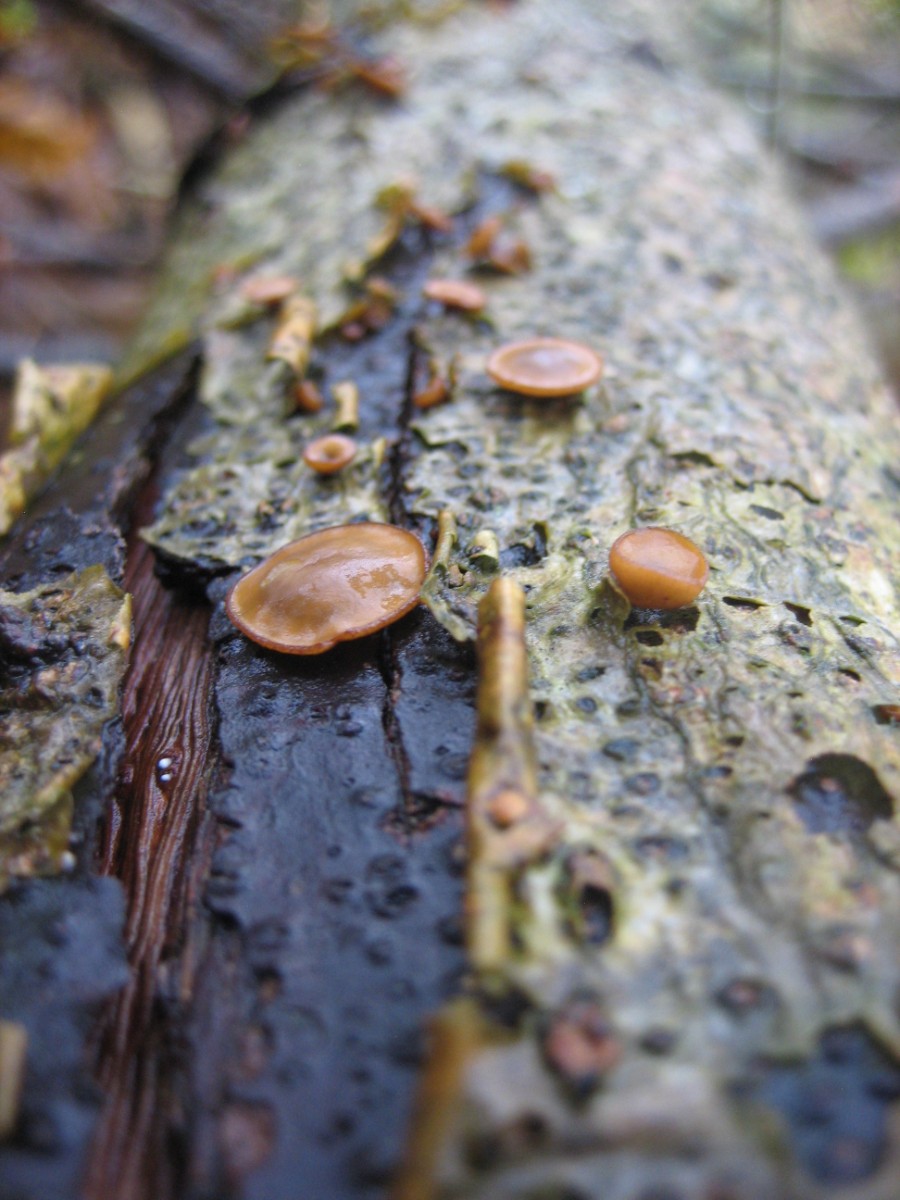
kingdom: Fungi
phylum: Ascomycota
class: Leotiomycetes
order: Helotiales
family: Rutstroemiaceae
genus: Rutstroemia
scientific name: Rutstroemia firma
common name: gren-brunskive
